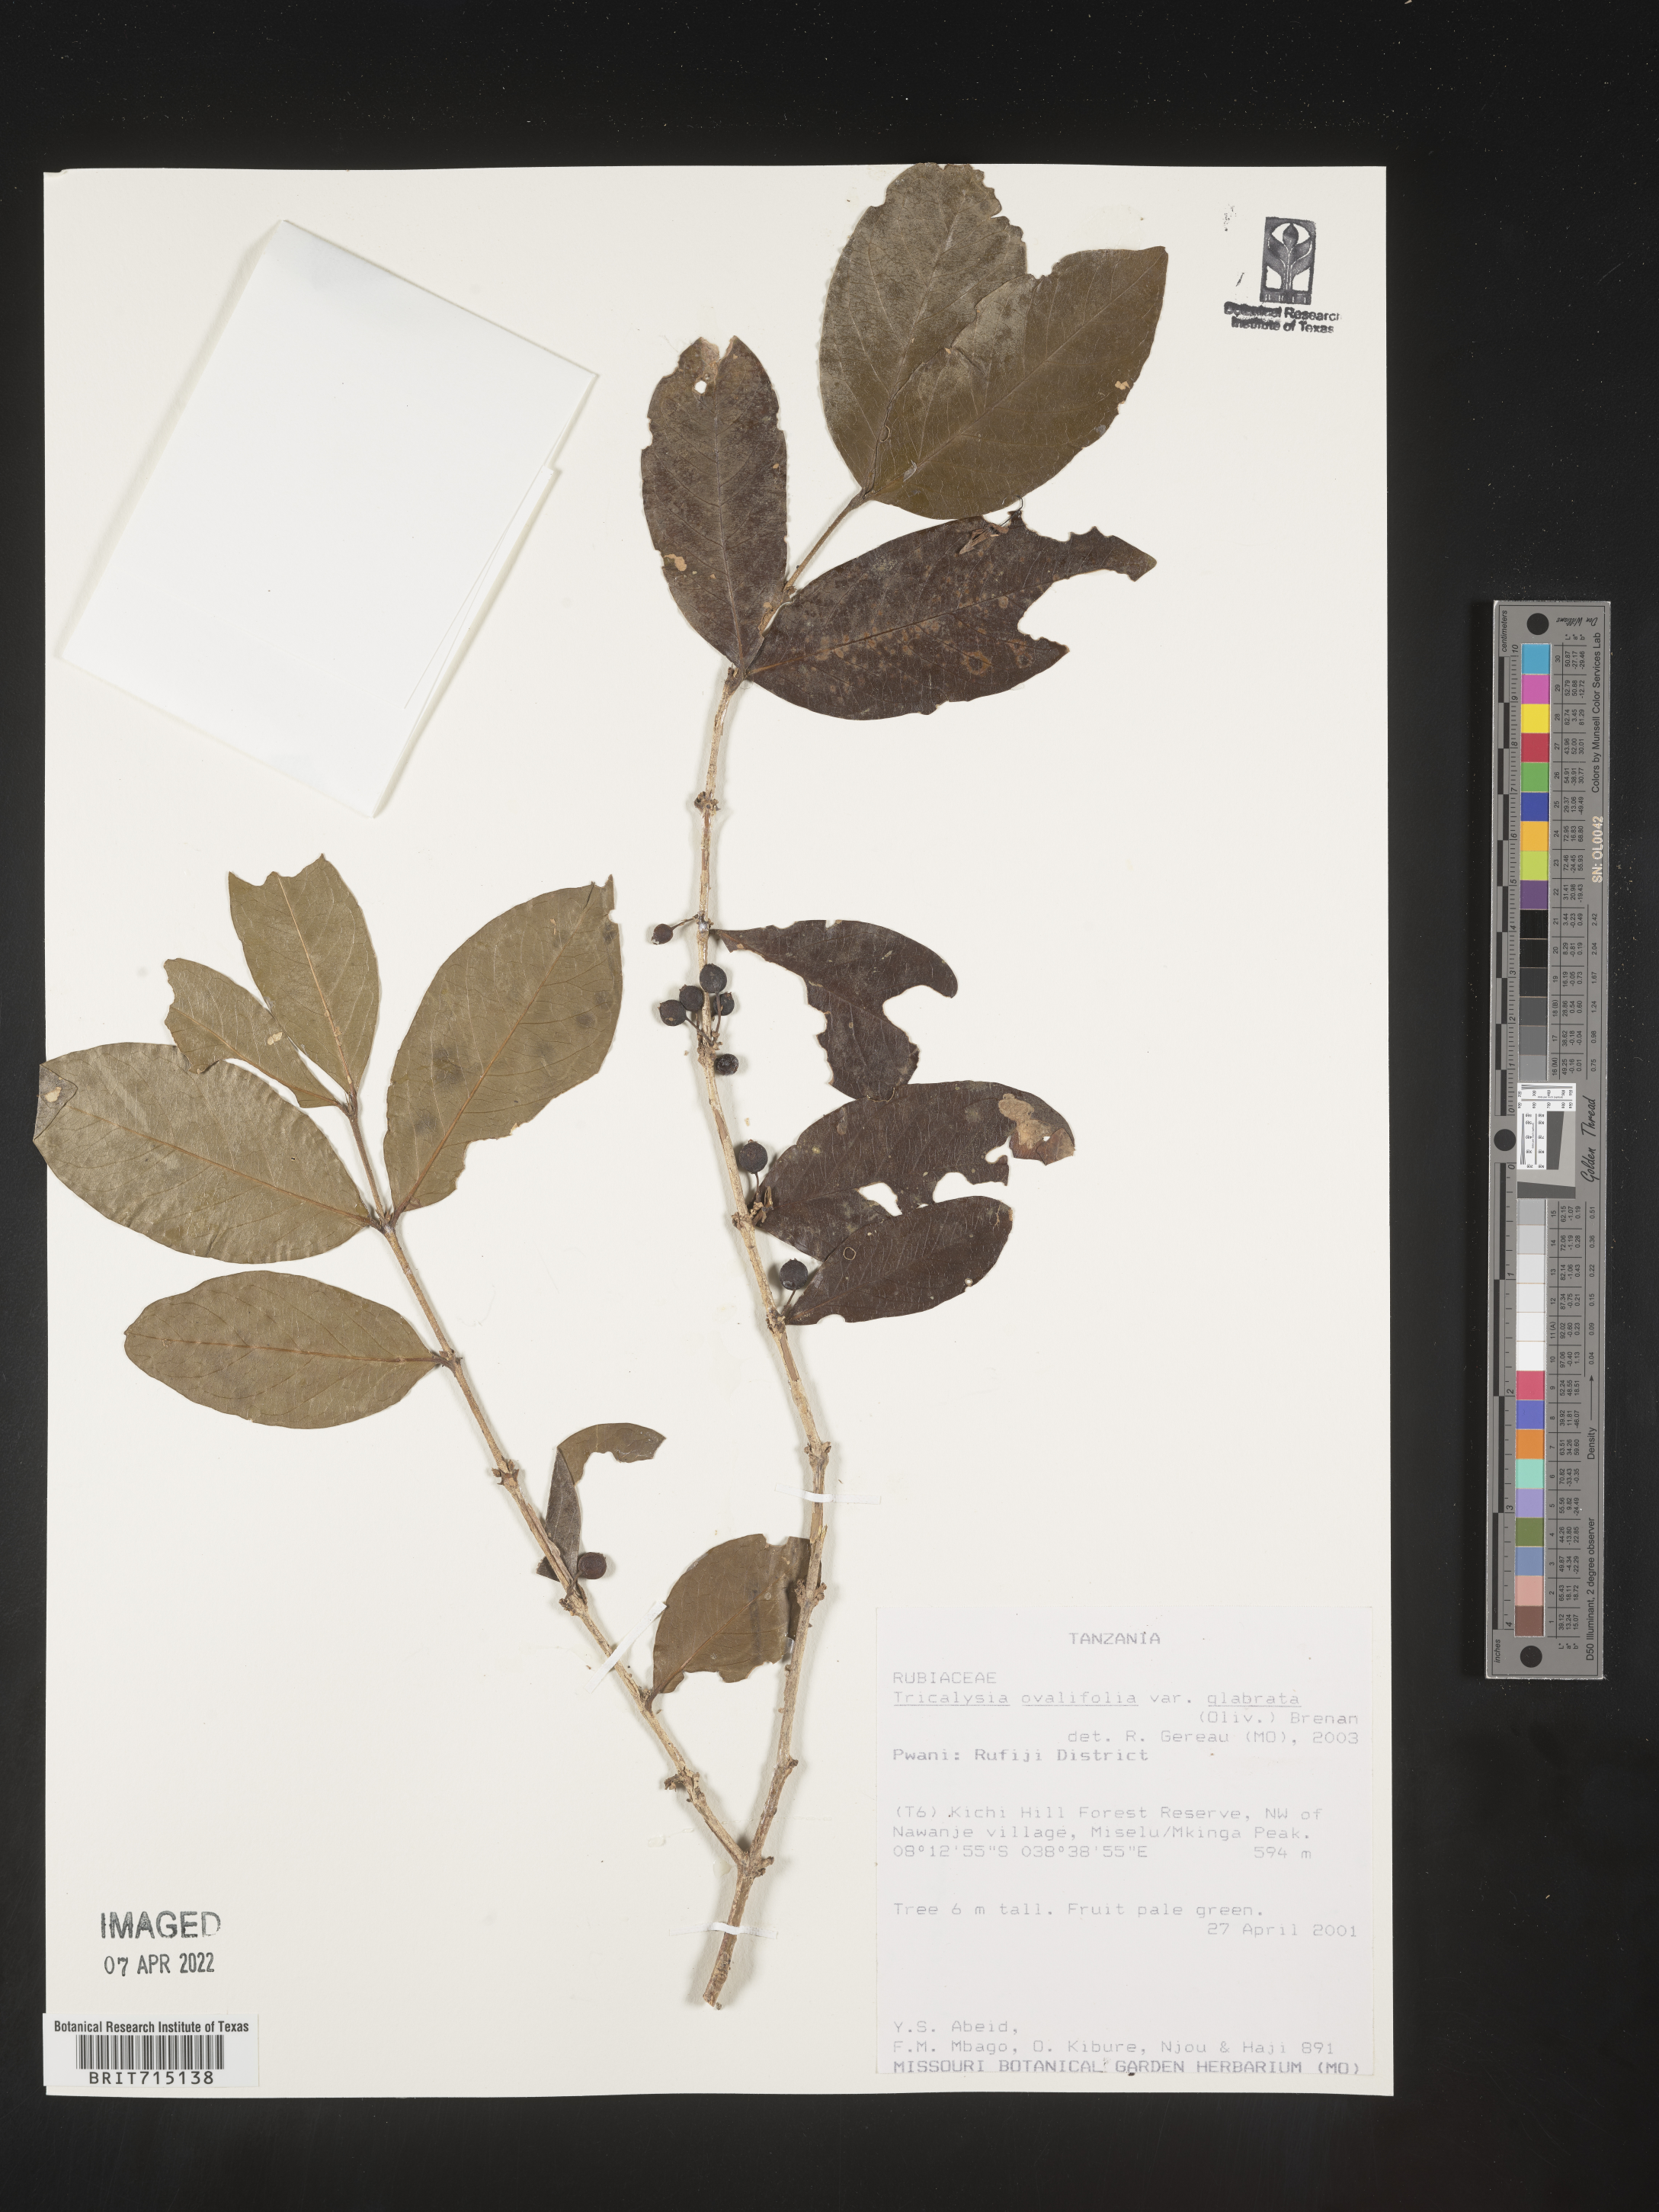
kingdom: Plantae
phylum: Tracheophyta
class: Magnoliopsida
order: Gentianales
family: Rubiaceae
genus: Tricalysia
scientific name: Tricalysia
